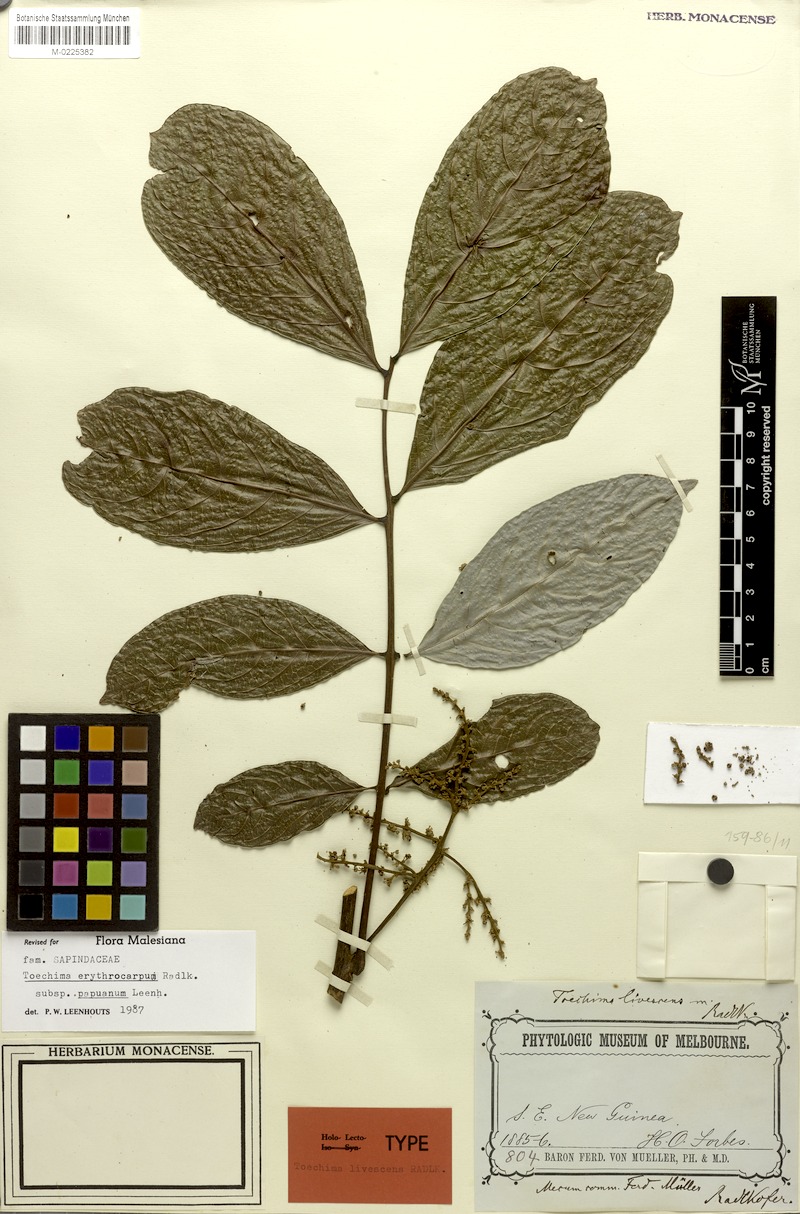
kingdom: Plantae
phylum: Tracheophyta
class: Magnoliopsida
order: Sapindales
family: Sapindaceae
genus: Toechima
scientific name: Toechima erythrocarpum
